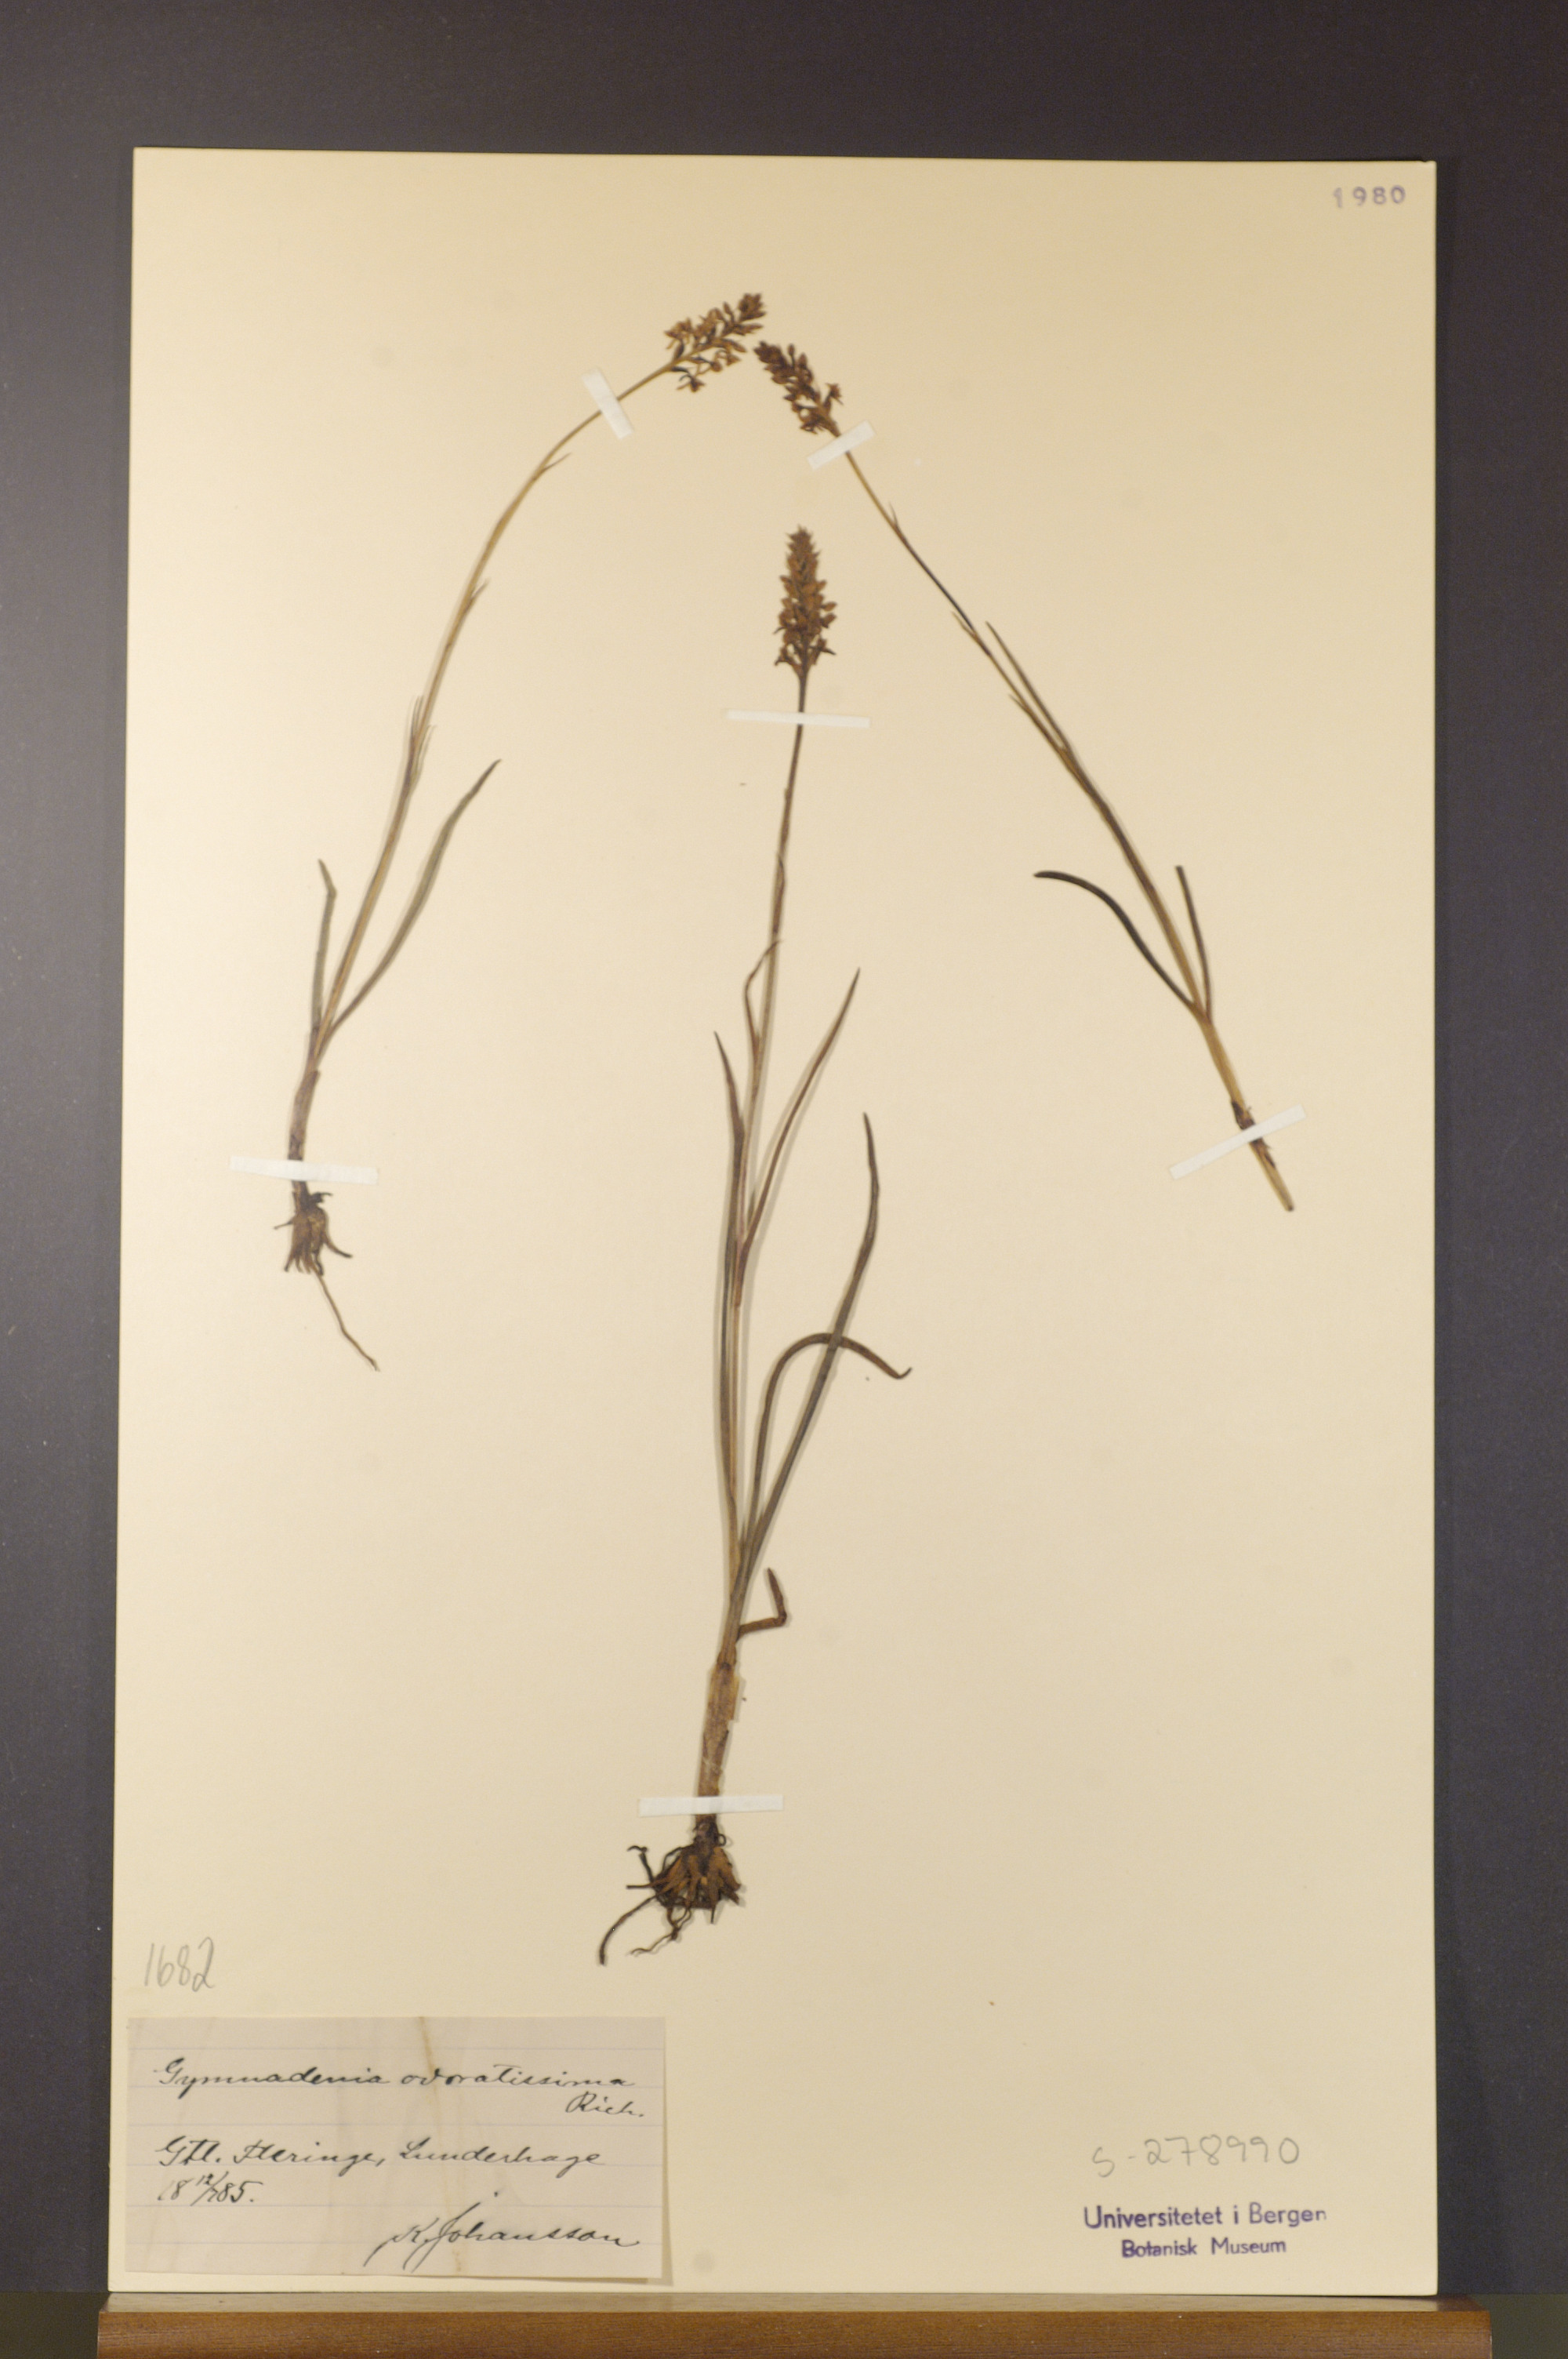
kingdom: Plantae
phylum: Tracheophyta
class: Liliopsida
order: Asparagales
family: Orchidaceae
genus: Gymnadenia
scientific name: Gymnadenia odoratissima
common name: Scented gymnadenia
